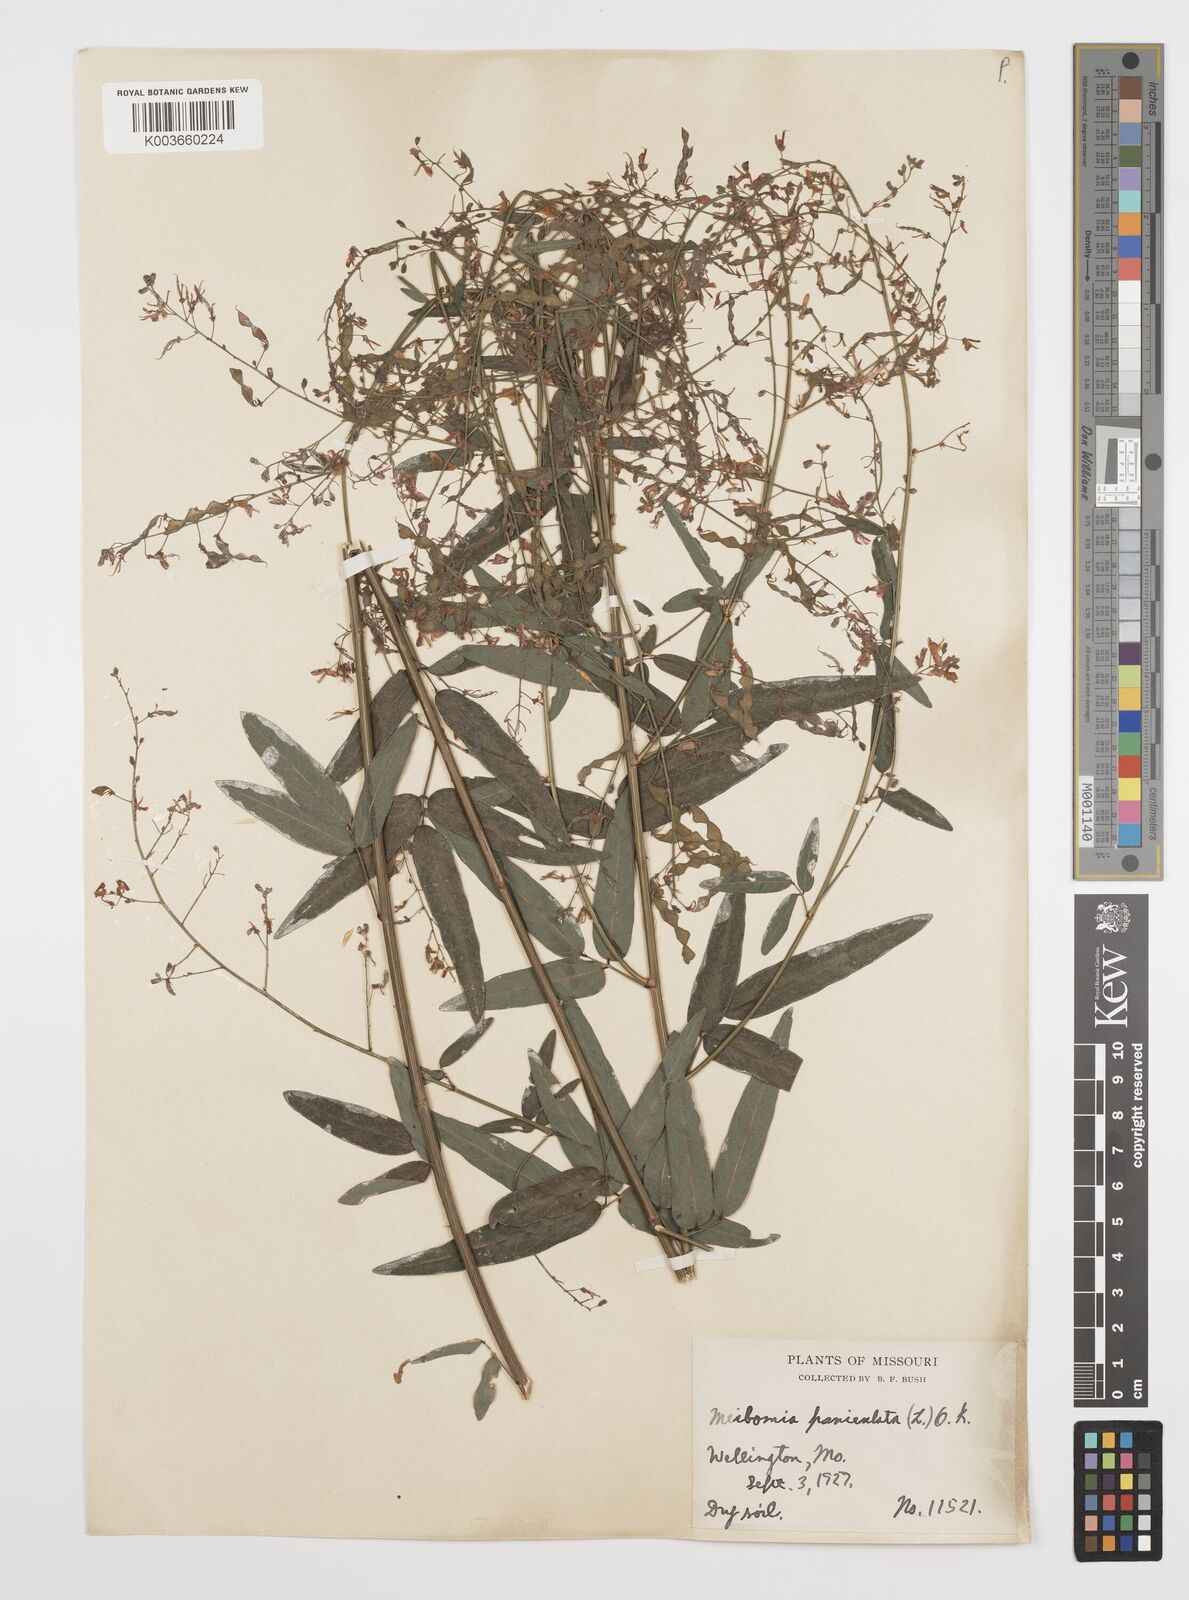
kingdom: Plantae
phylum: Tracheophyta
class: Magnoliopsida
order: Fabales
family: Fabaceae
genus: Desmodium
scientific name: Desmodium paniculatum
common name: Panicled tick-clover
